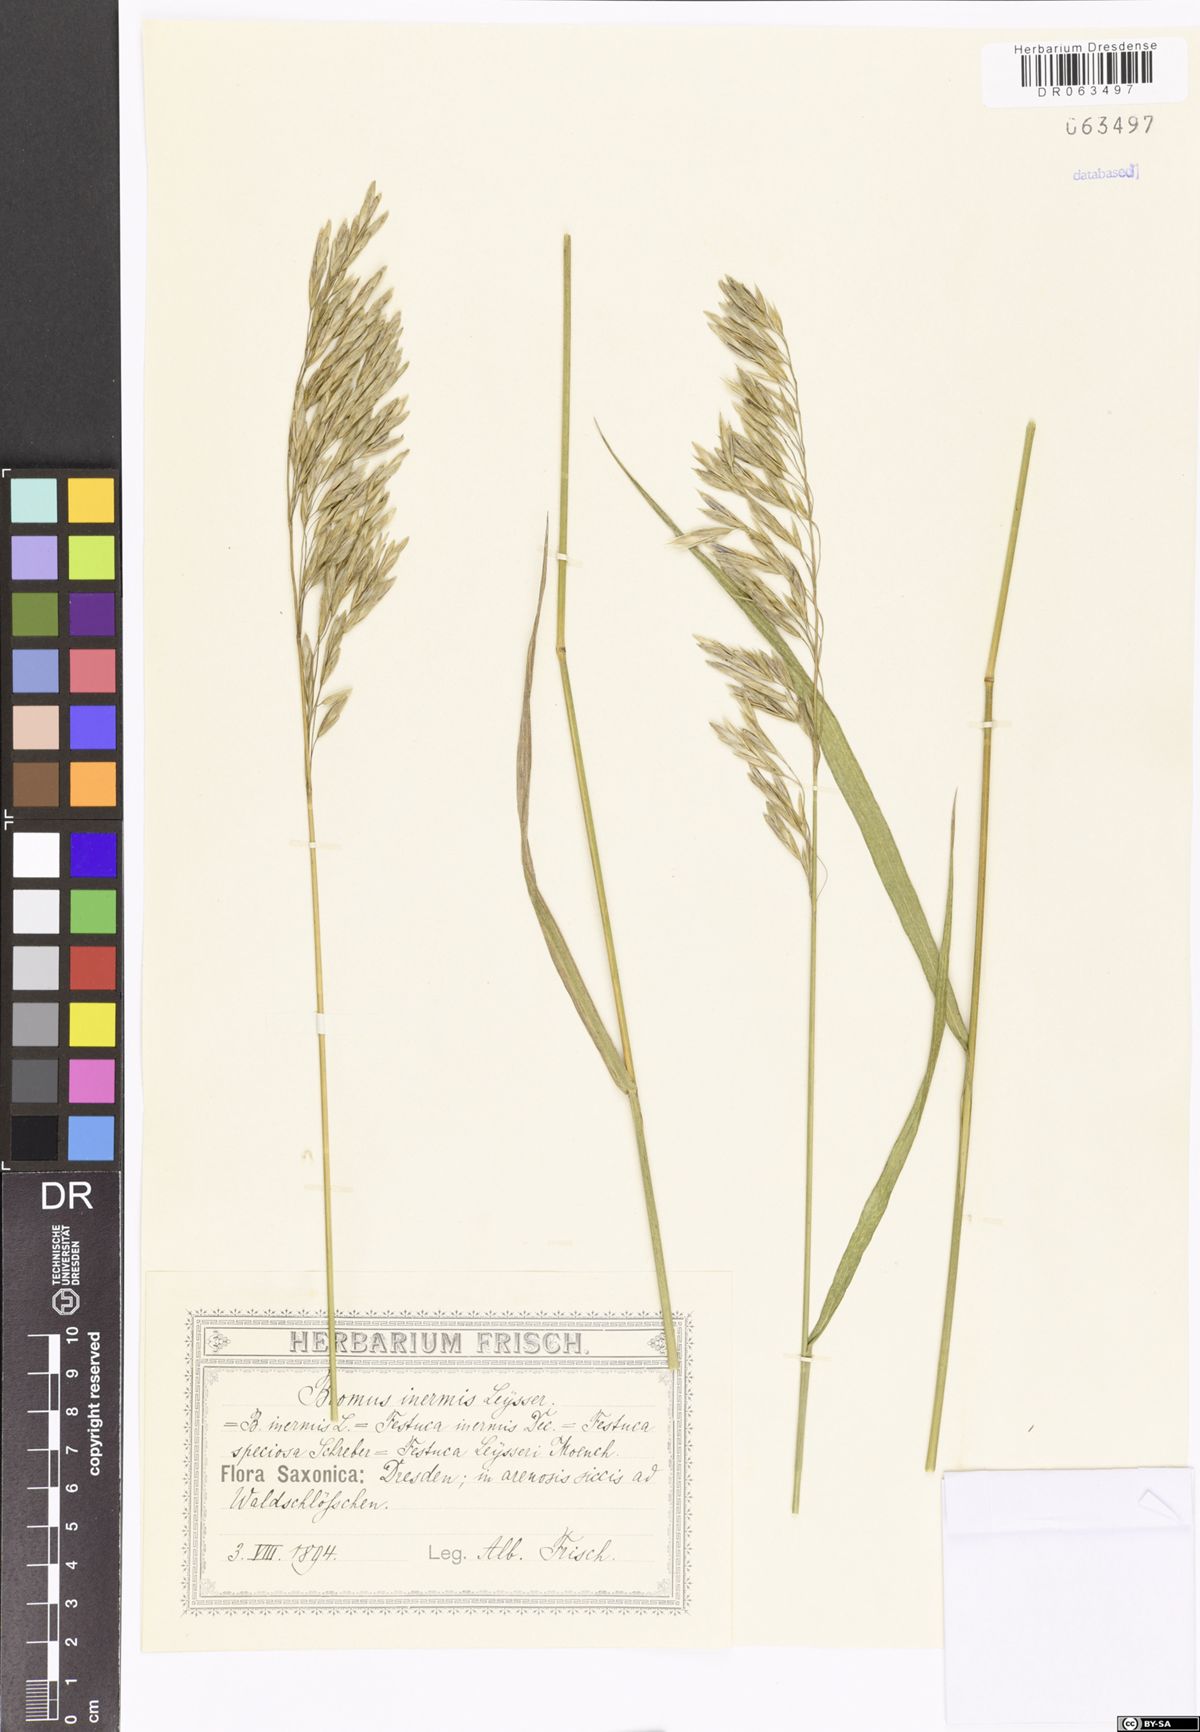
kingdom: Plantae
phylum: Tracheophyta
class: Liliopsida
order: Poales
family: Poaceae
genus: Bromus
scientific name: Bromus inermis
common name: Smooth brome
